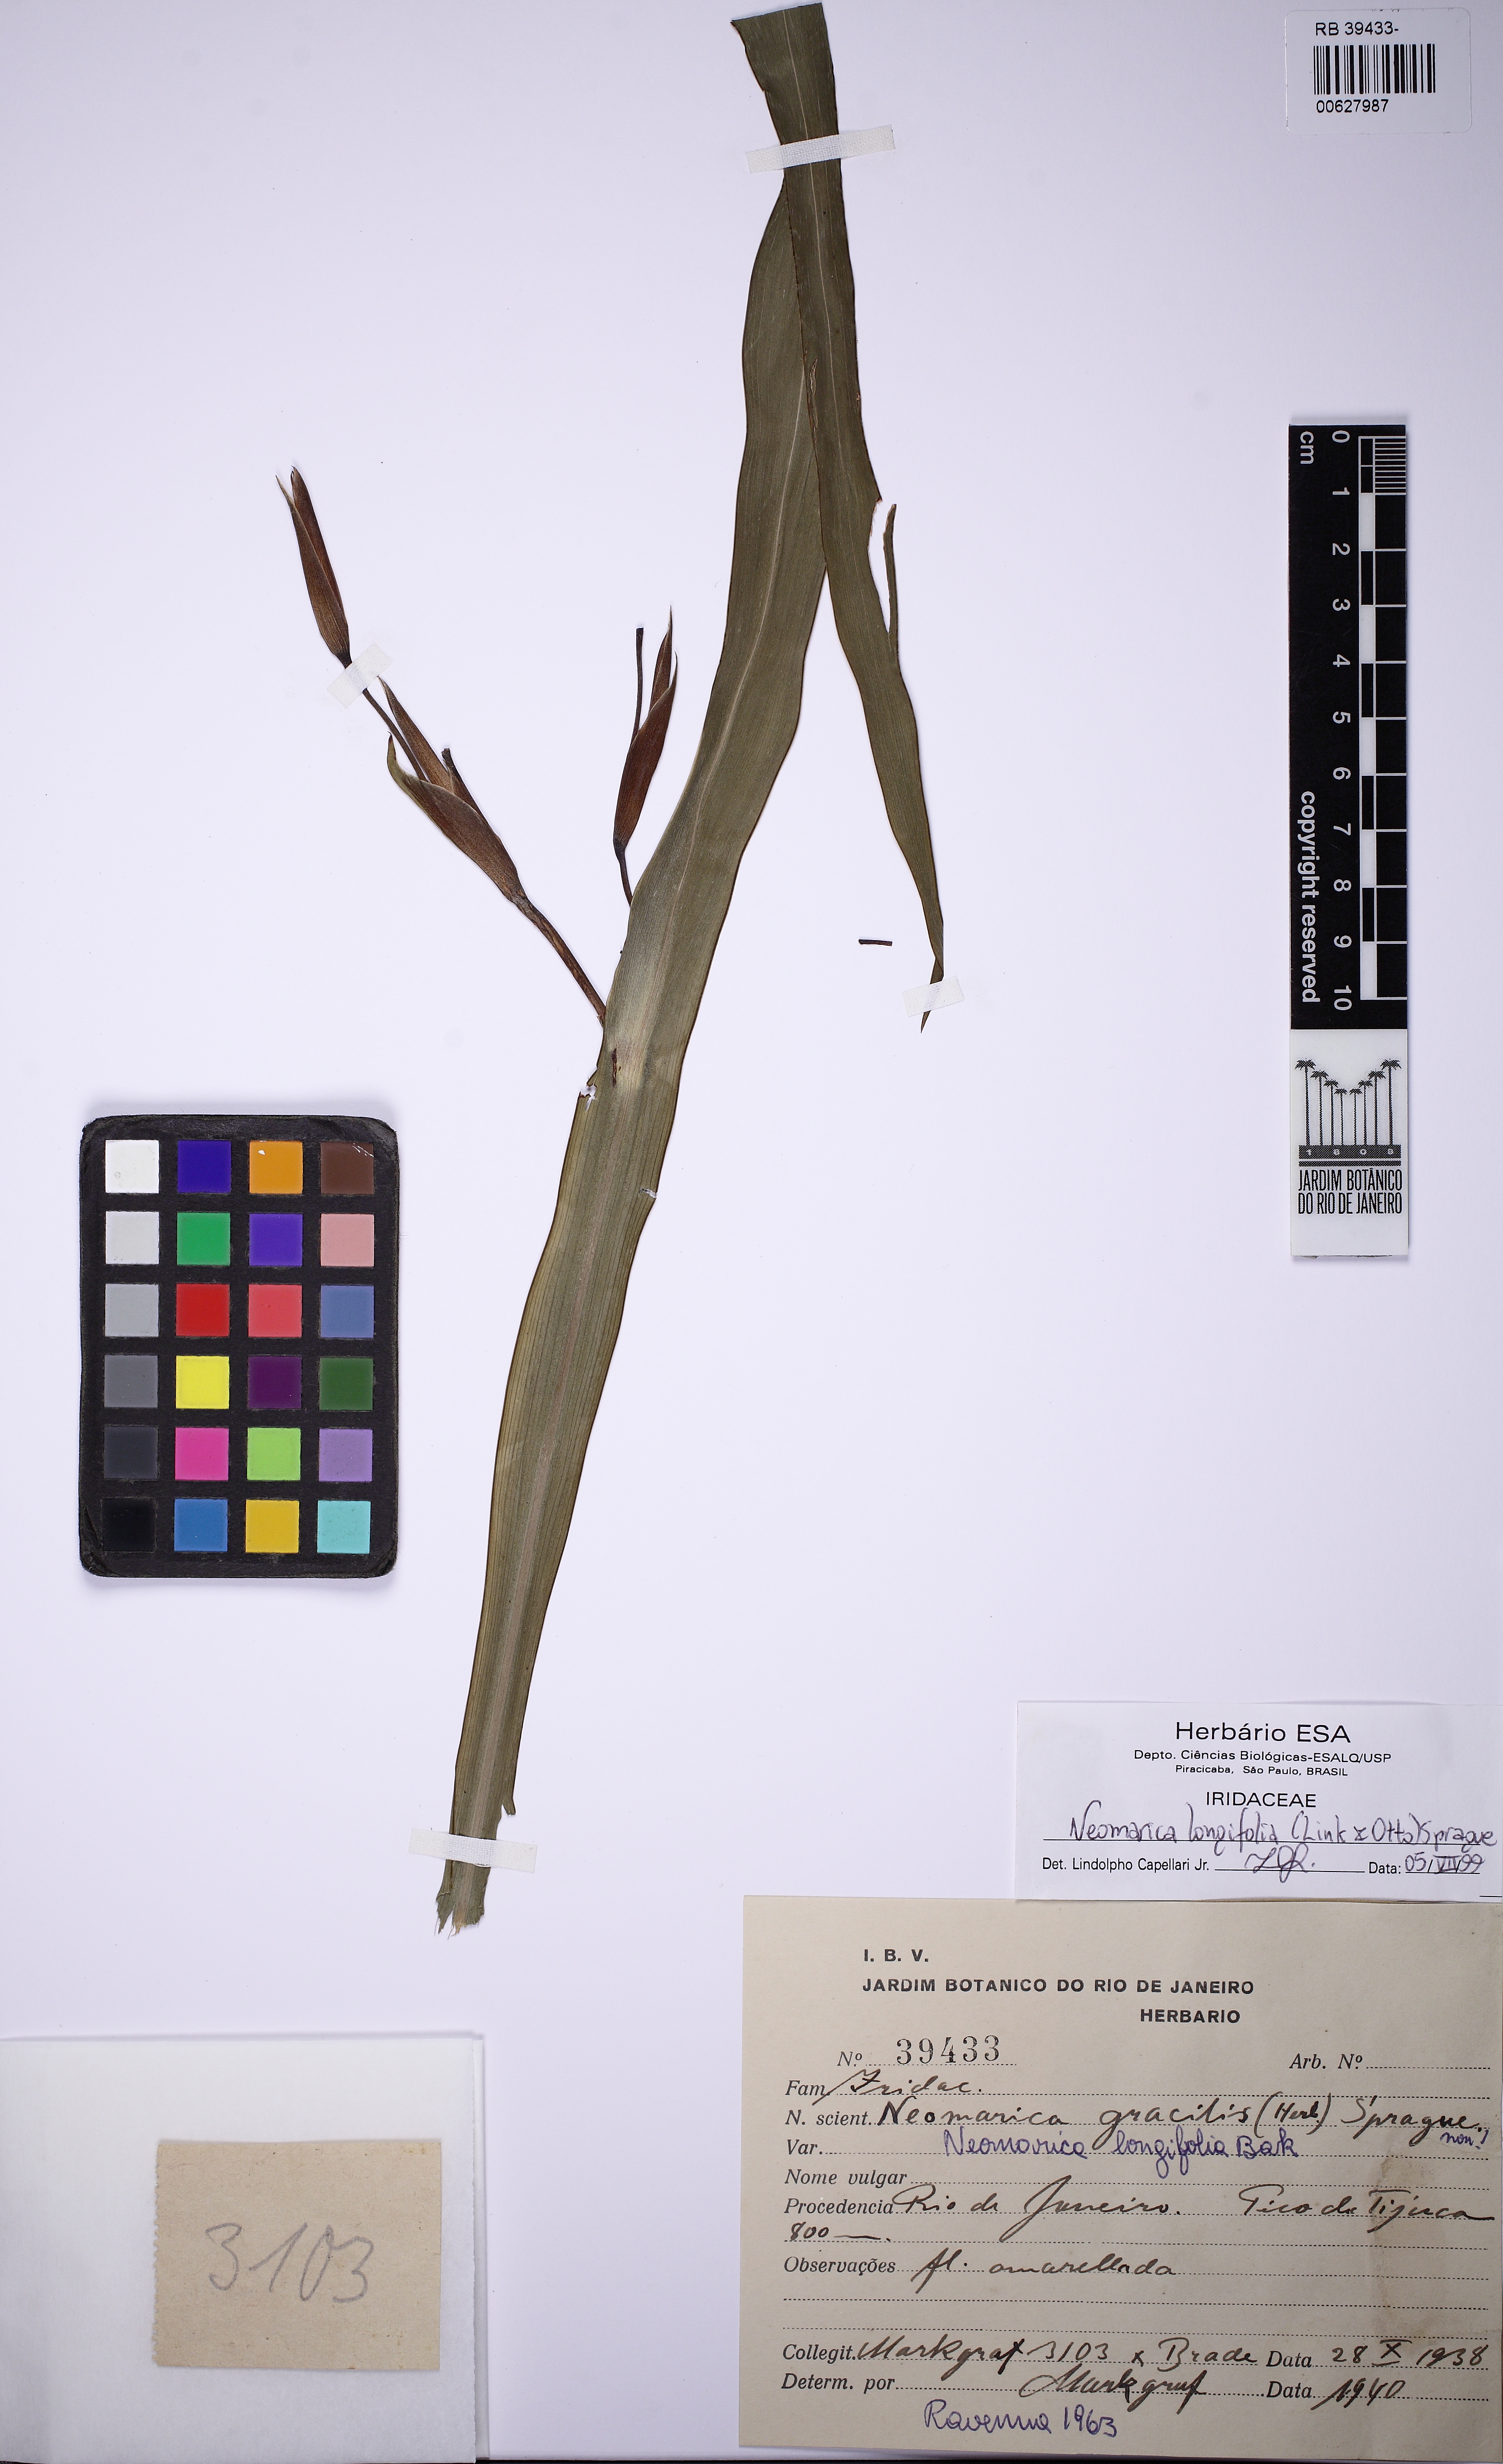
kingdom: Plantae
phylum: Tracheophyta
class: Liliopsida
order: Asparagales
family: Iridaceae
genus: Trimezia
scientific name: Trimezia longifolia
